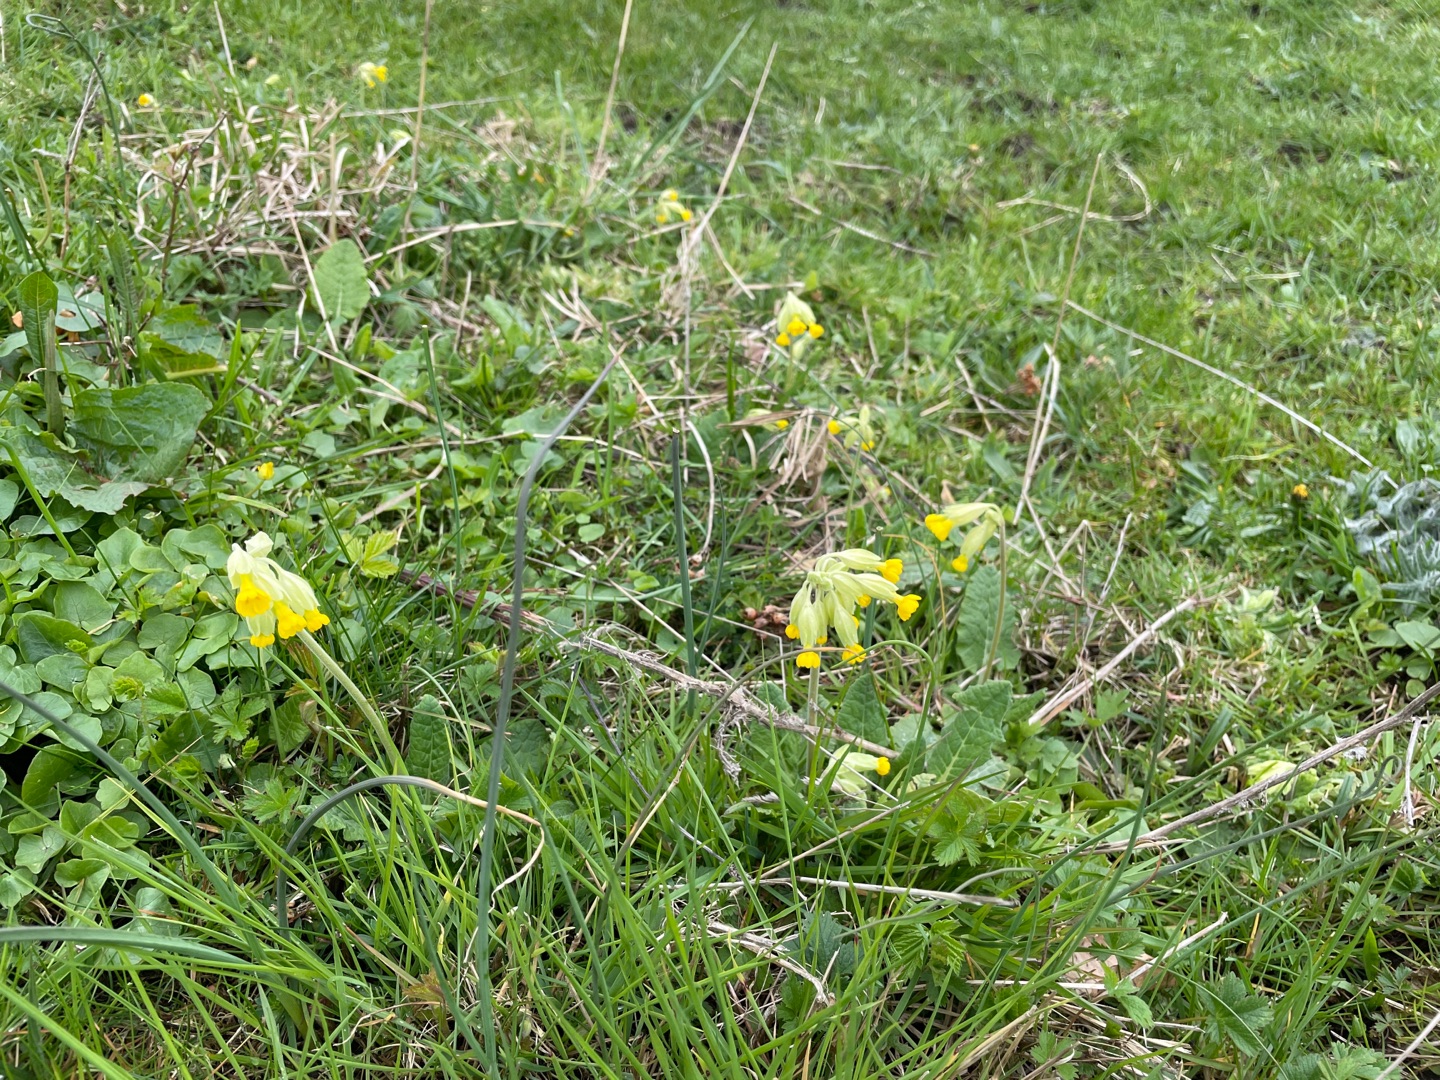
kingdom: Plantae
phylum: Tracheophyta
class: Magnoliopsida
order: Ericales
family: Primulaceae
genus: Primula
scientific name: Primula veris
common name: Hulkravet kodriver
